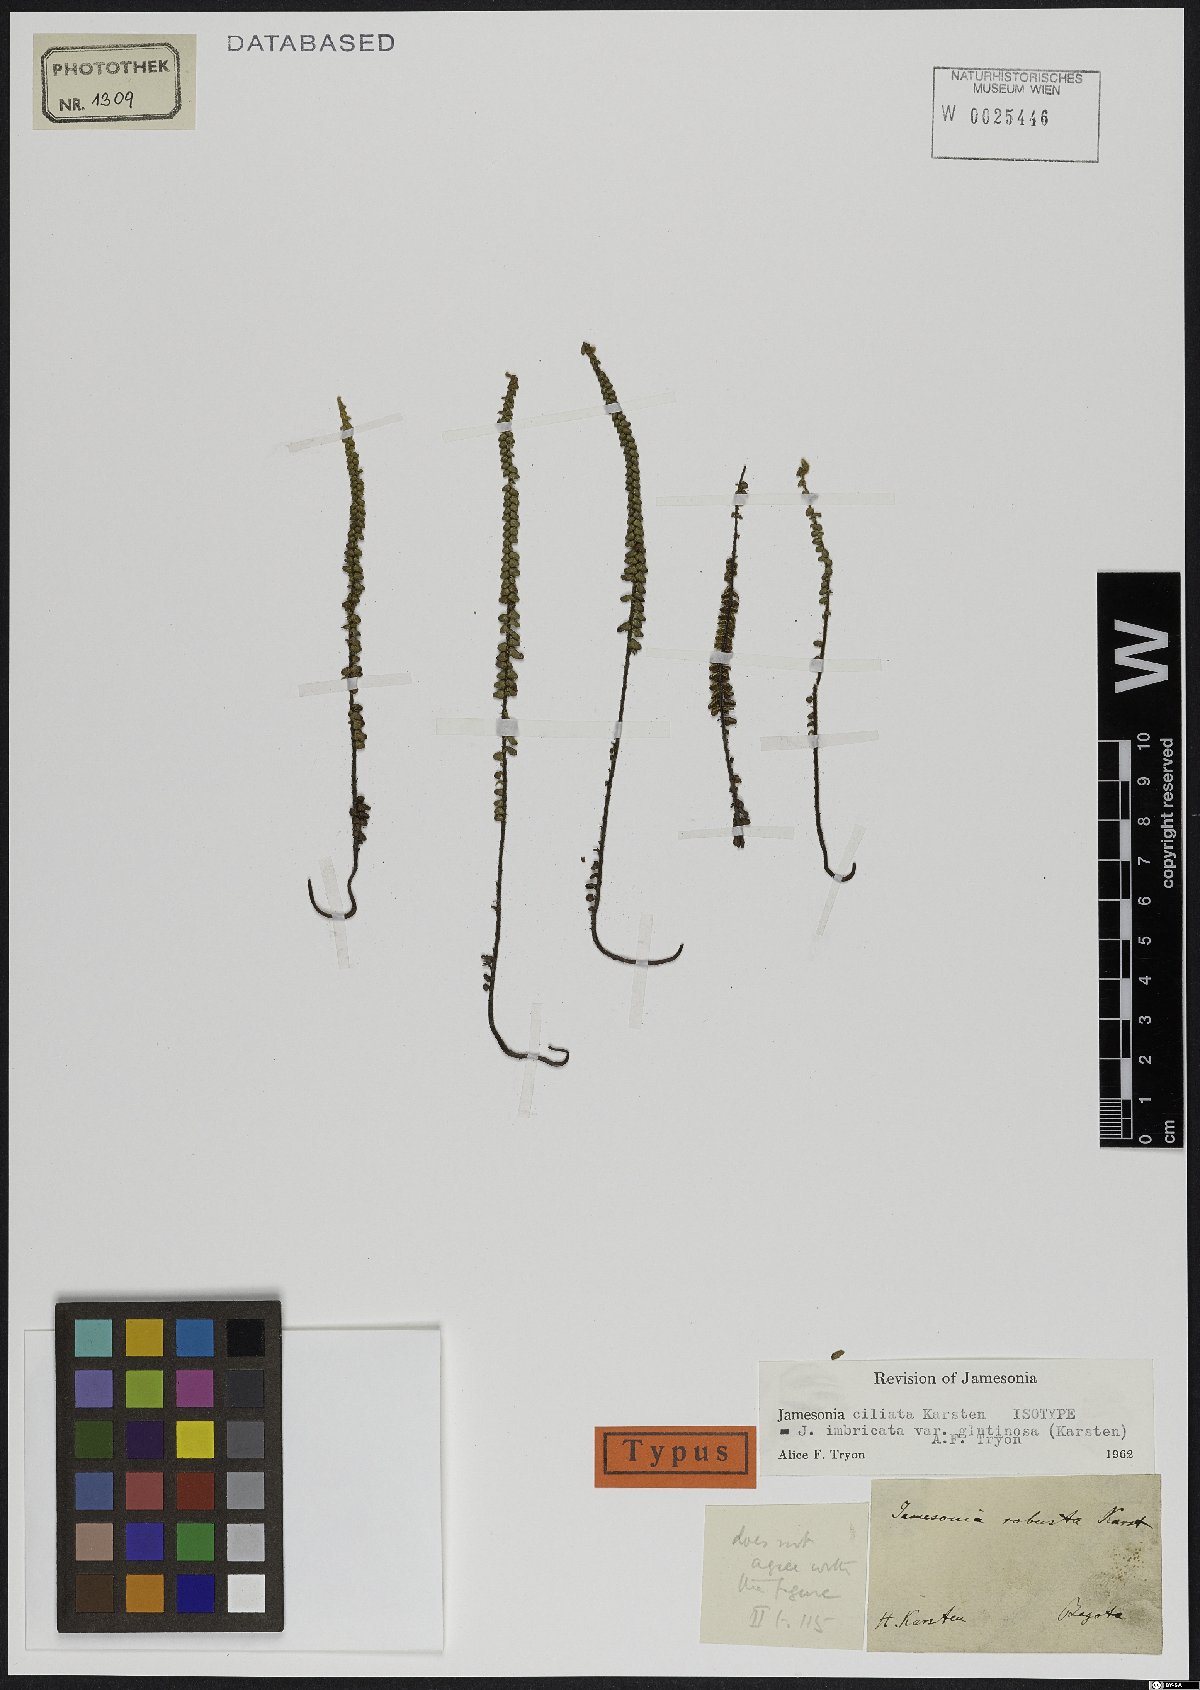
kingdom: Plantae
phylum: Tracheophyta
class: Polypodiopsida
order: Polypodiales
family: Pteridaceae
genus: Jamesonia
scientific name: Jamesonia imbricata
